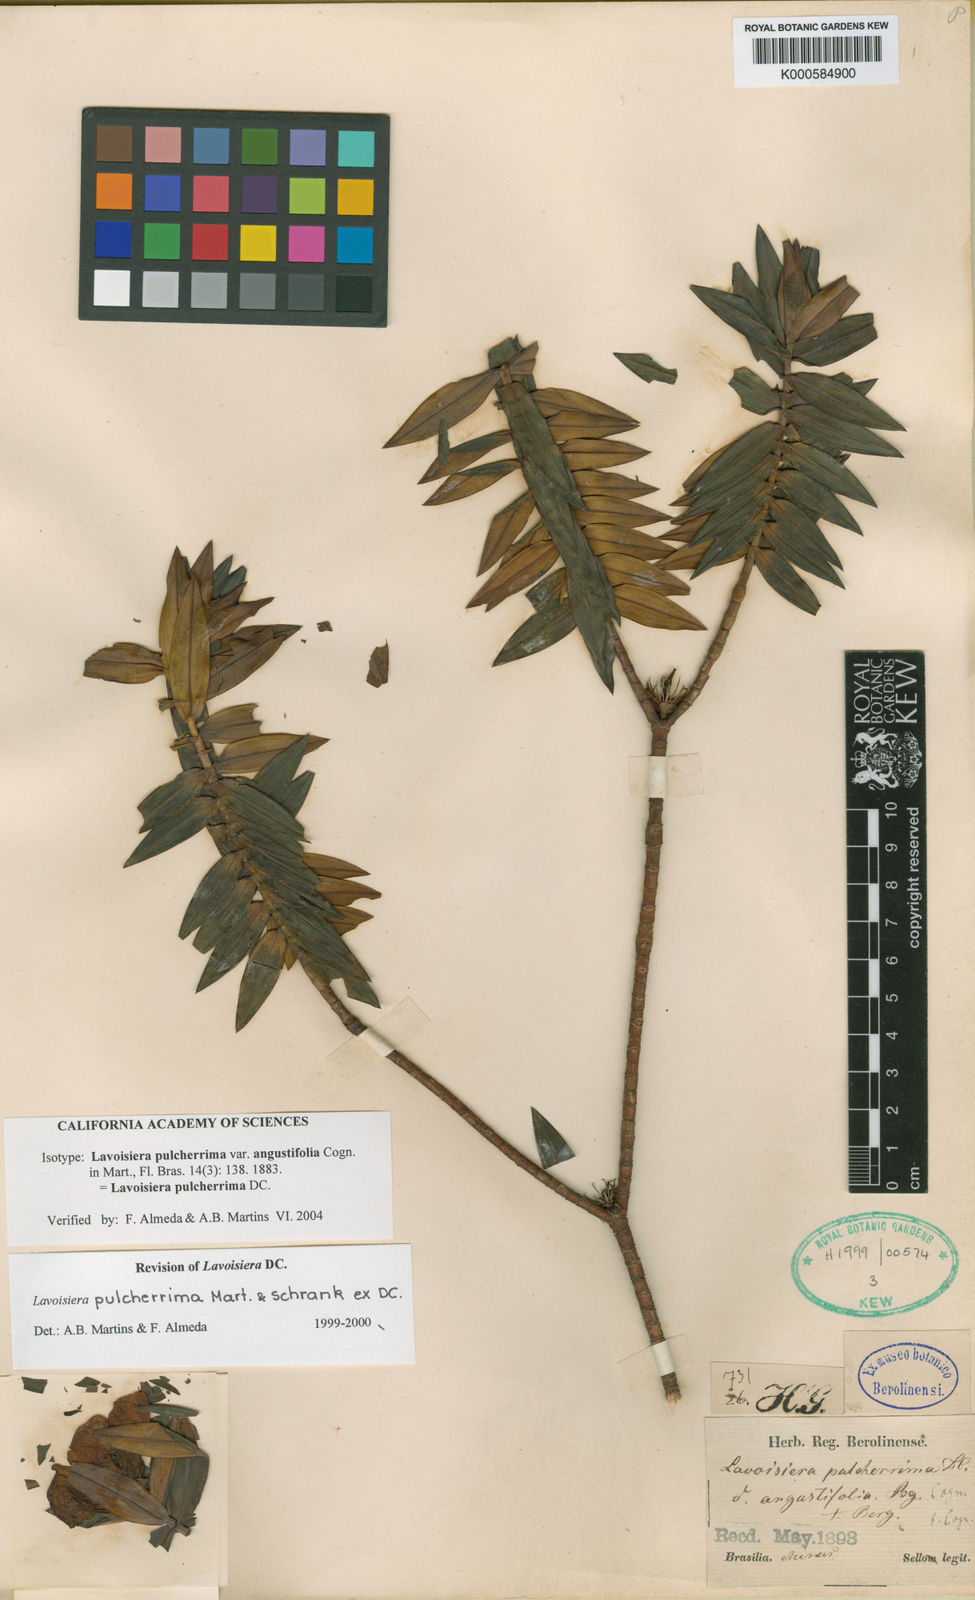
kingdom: Plantae
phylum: Tracheophyta
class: Magnoliopsida
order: Myrtales
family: Melastomataceae
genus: Microlicia
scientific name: Microlicia pulcherrima
